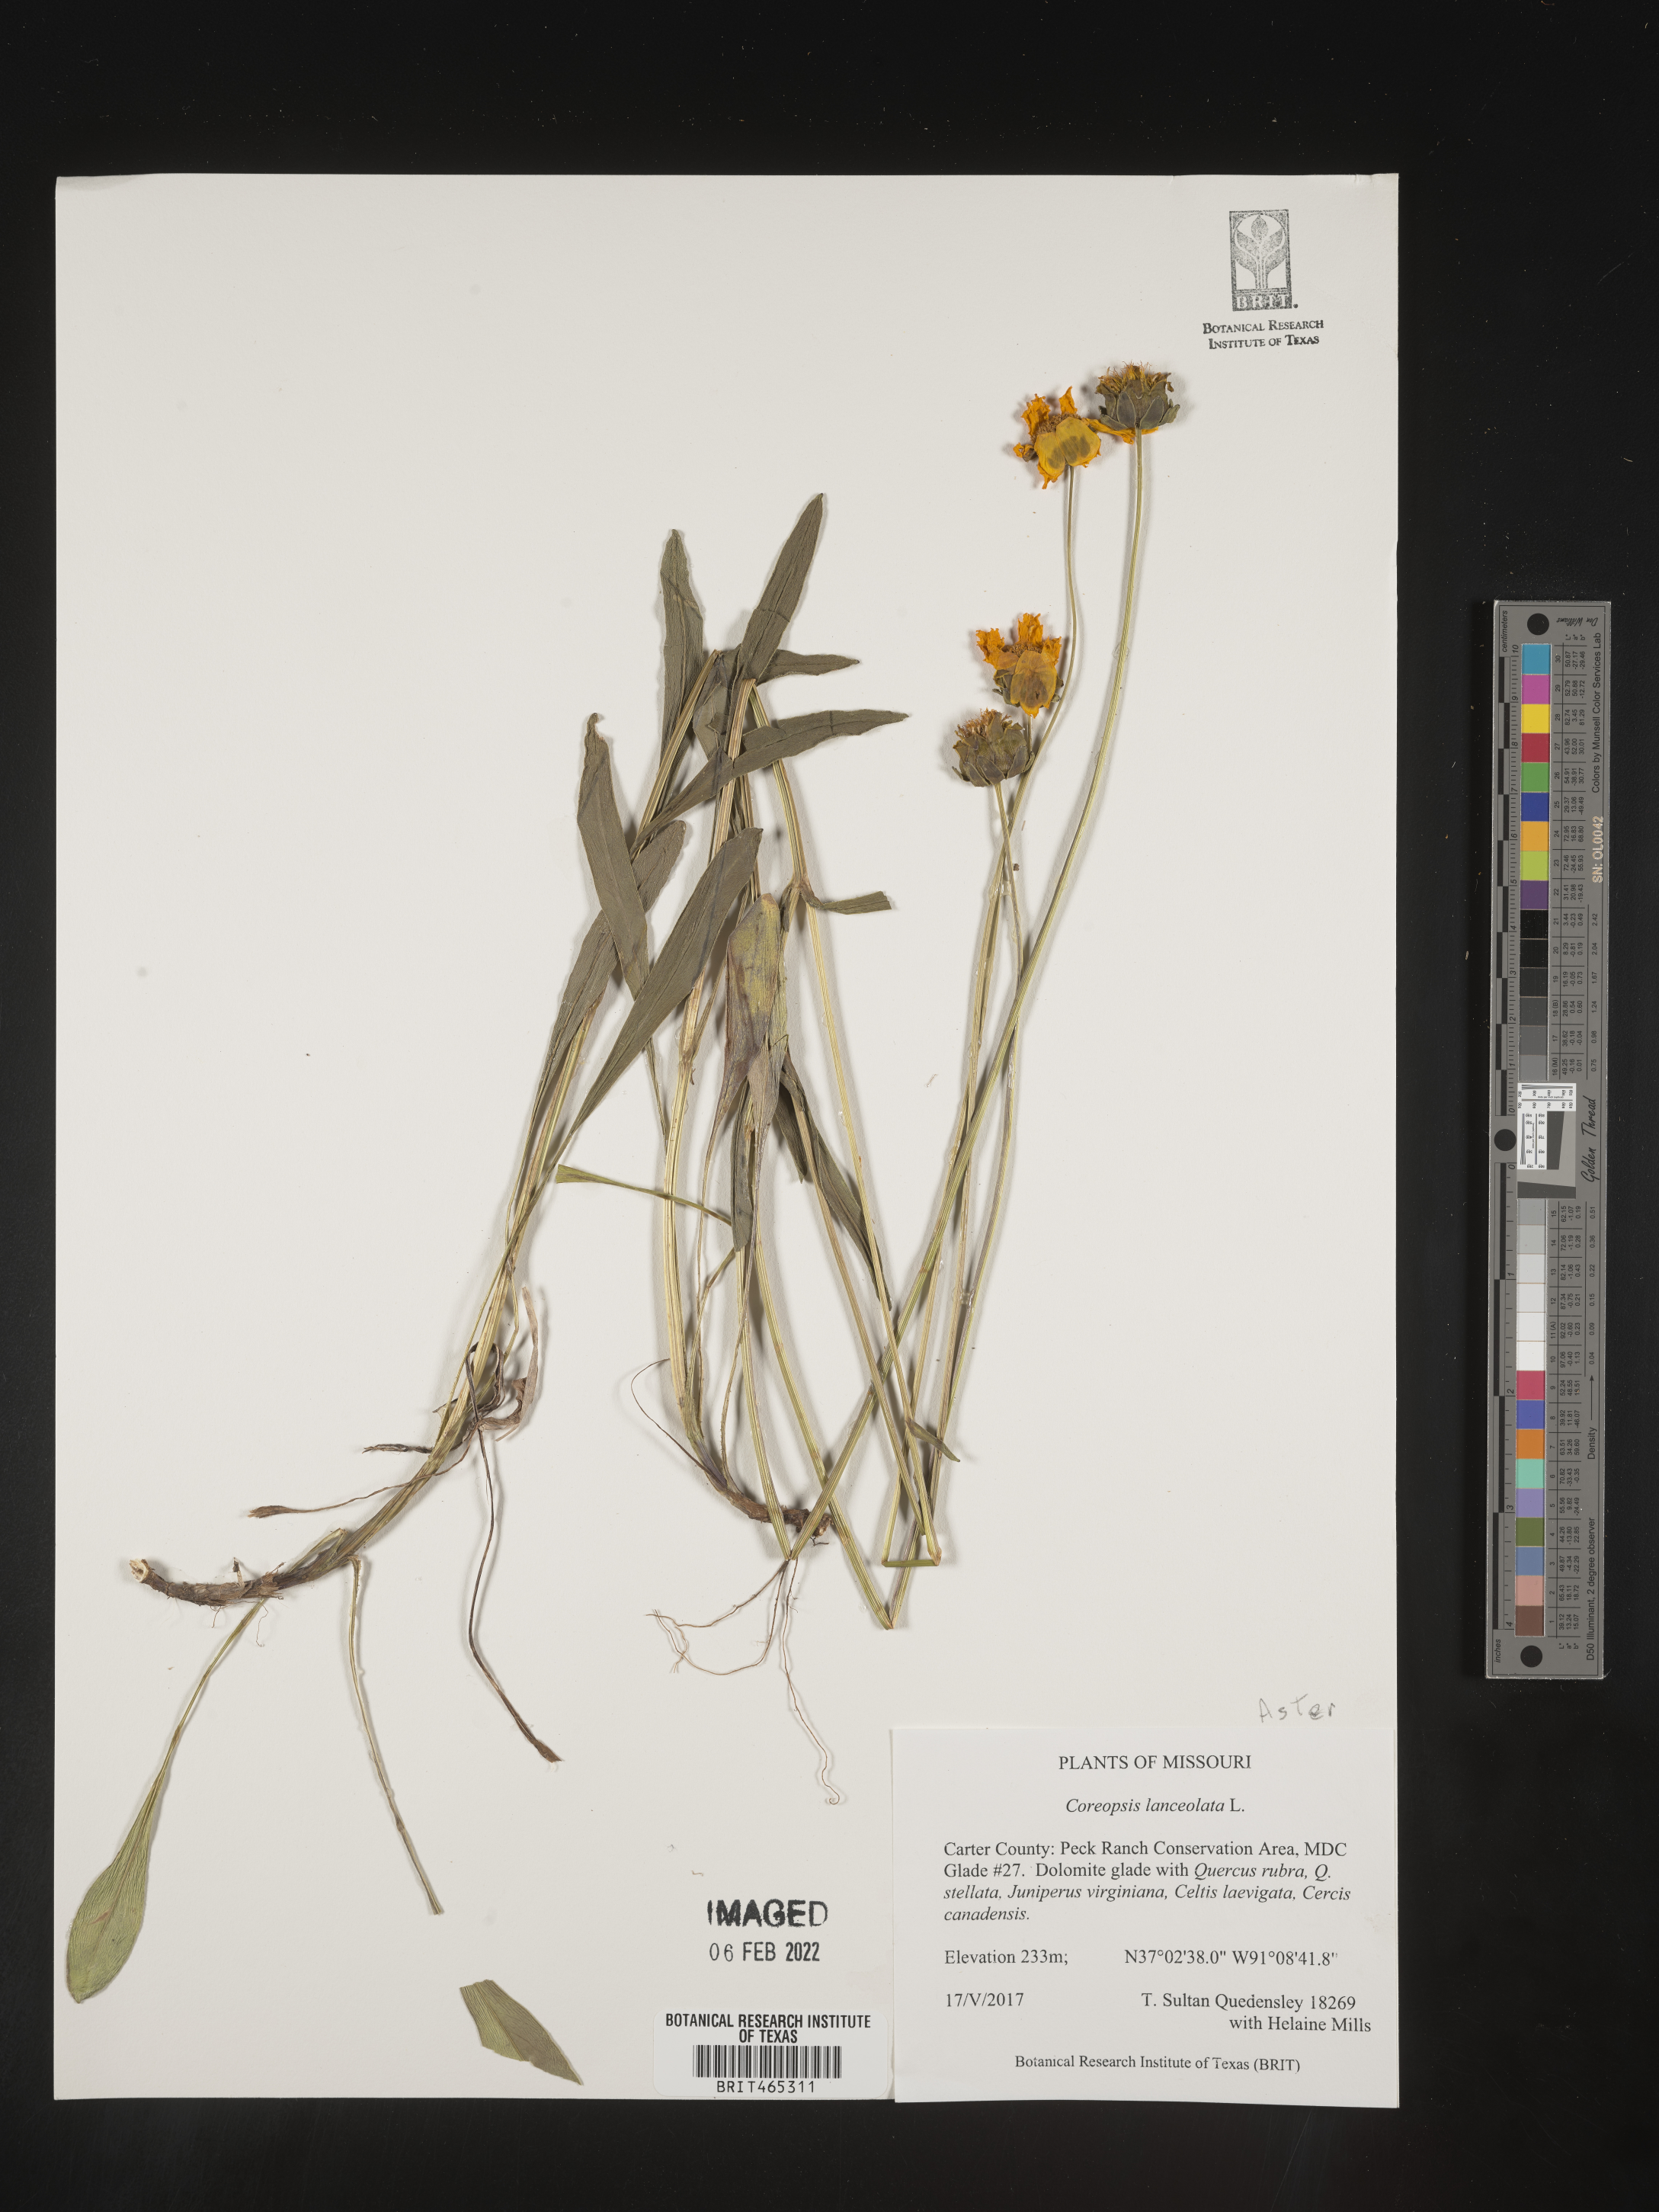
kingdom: Plantae
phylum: Tracheophyta
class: Magnoliopsida
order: Asterales
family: Asteraceae
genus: Coreopsis
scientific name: Coreopsis lanceolata
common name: Garden coreopsis
